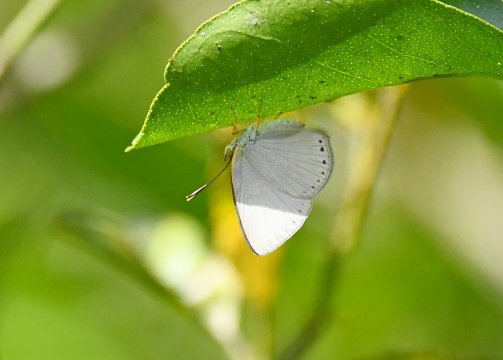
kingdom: Animalia
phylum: Arthropoda
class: Insecta
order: Lepidoptera
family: Nymphalidae
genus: Ethope
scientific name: Ethope
